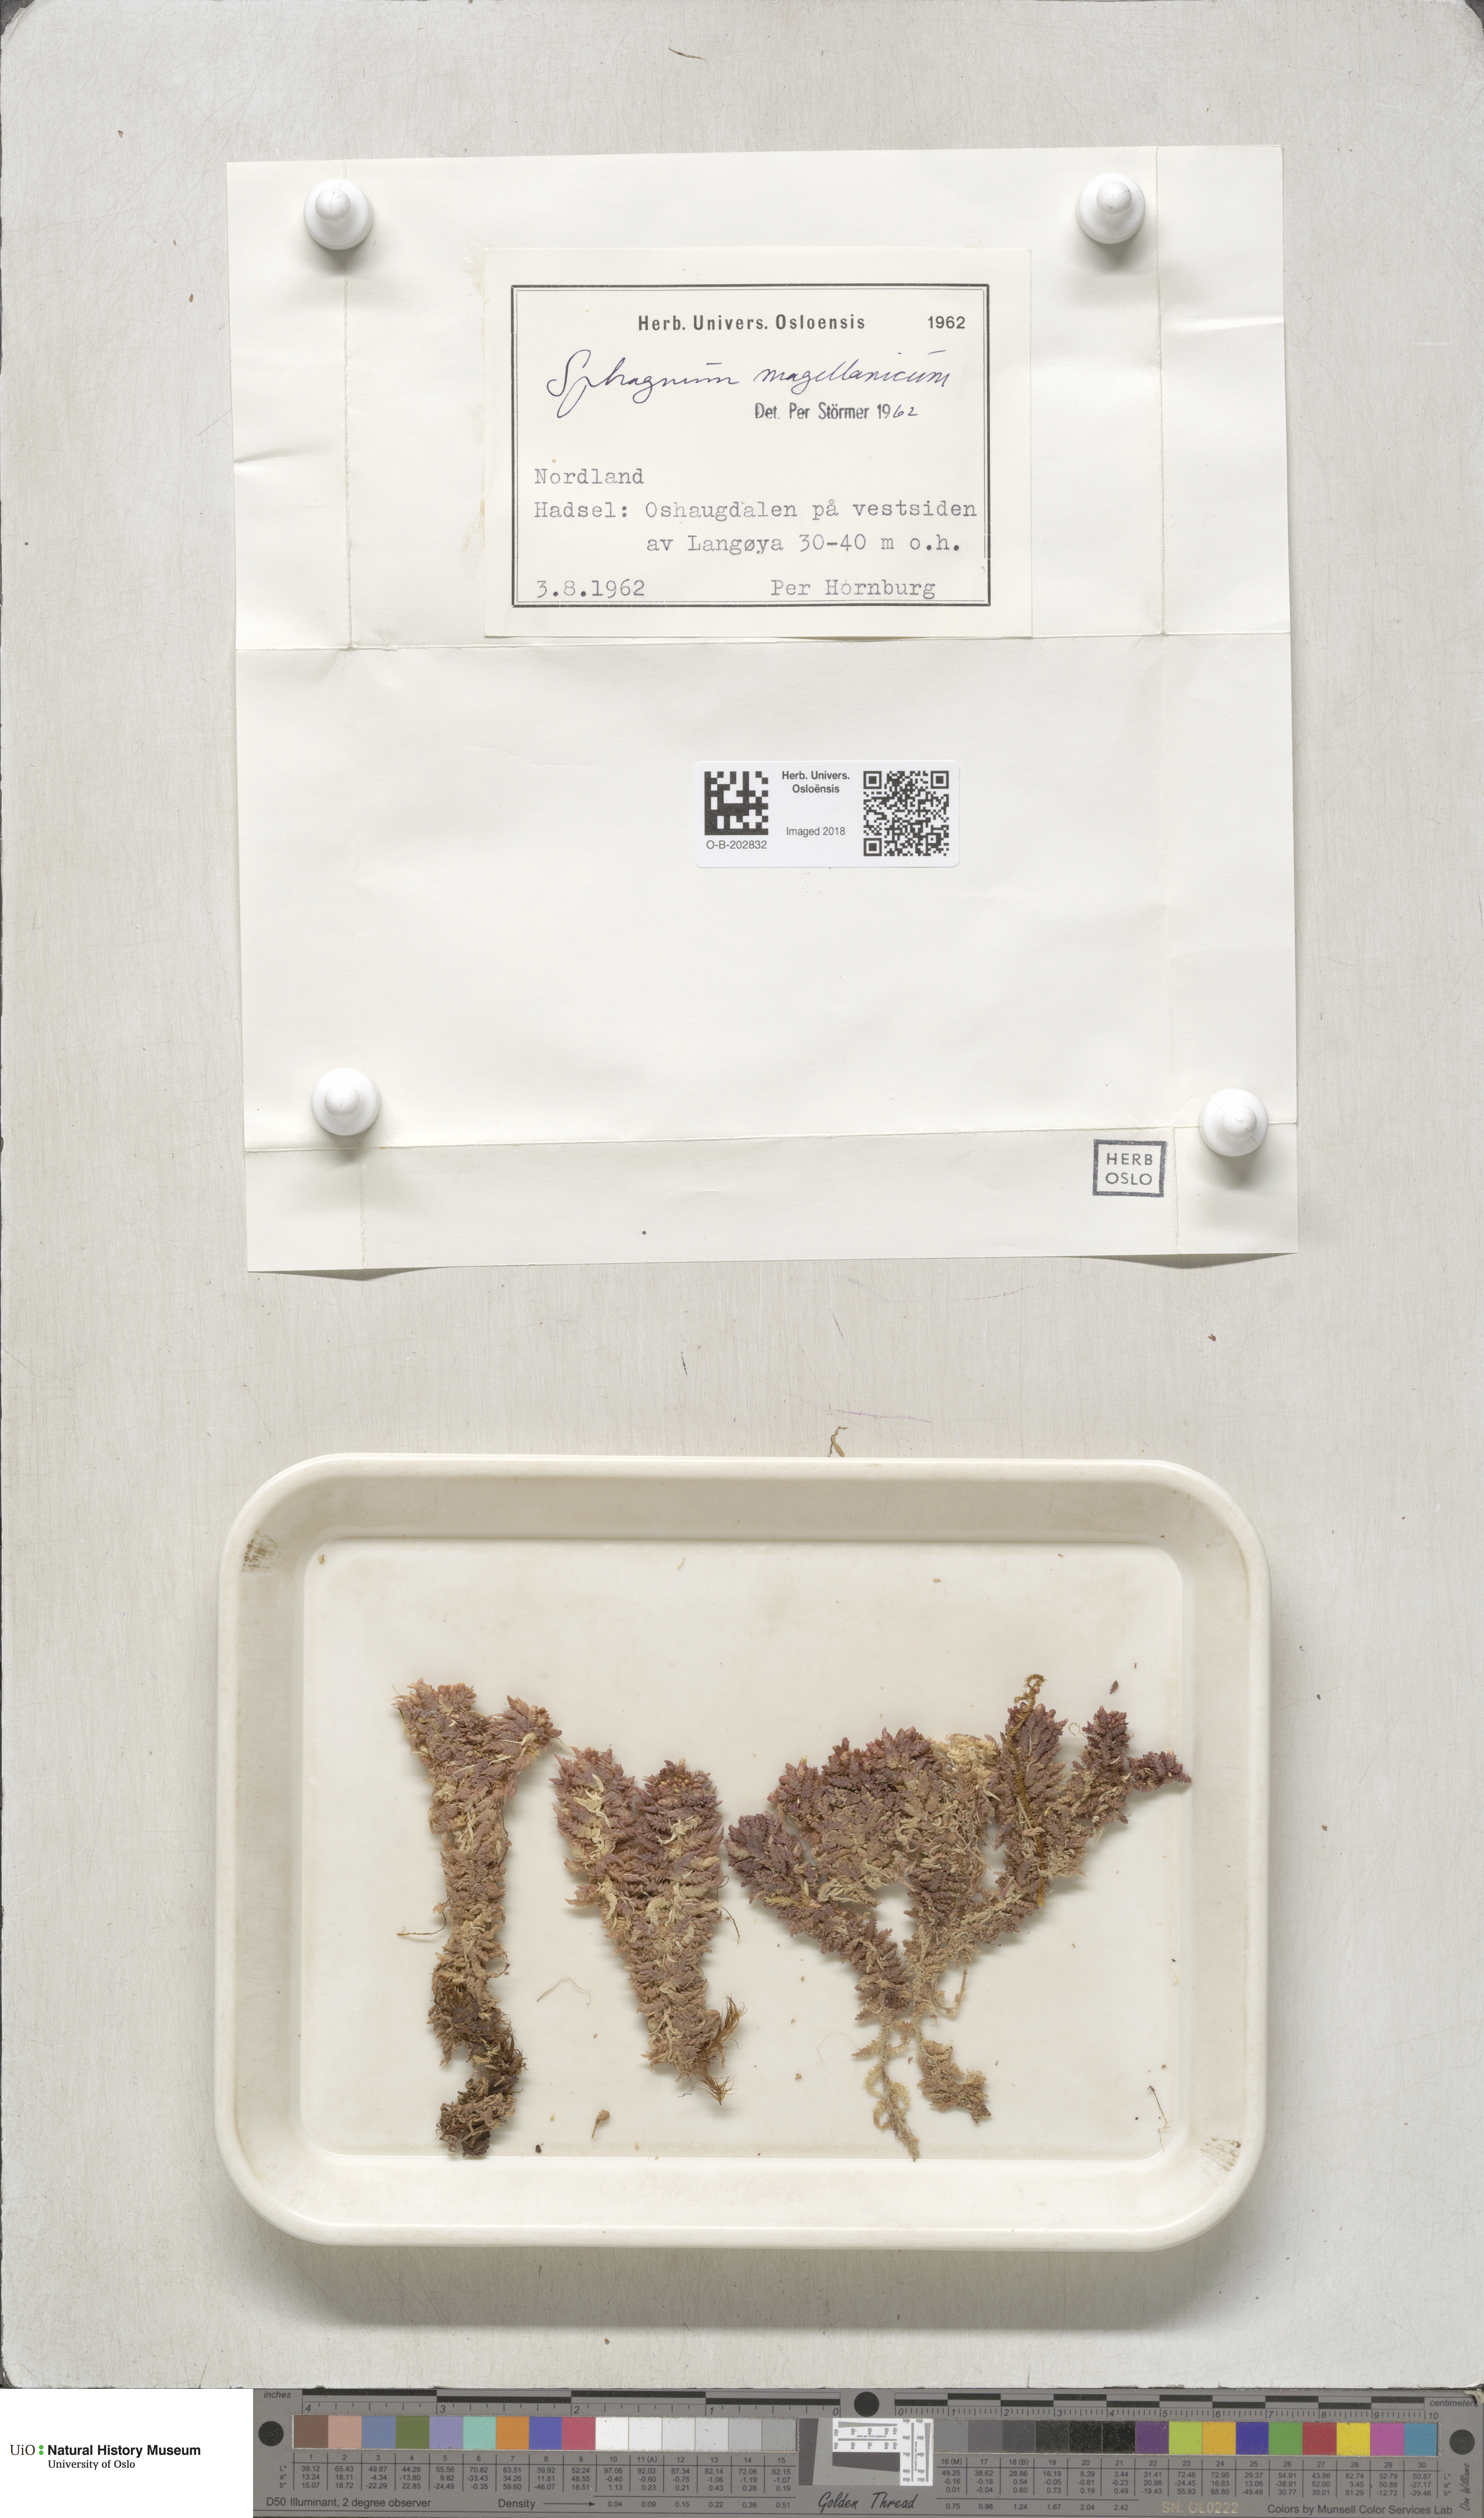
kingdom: Plantae
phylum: Bryophyta
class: Sphagnopsida
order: Sphagnales
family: Sphagnaceae
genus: Sphagnum
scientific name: Sphagnum magellanicum
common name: Magellan's peat moss
